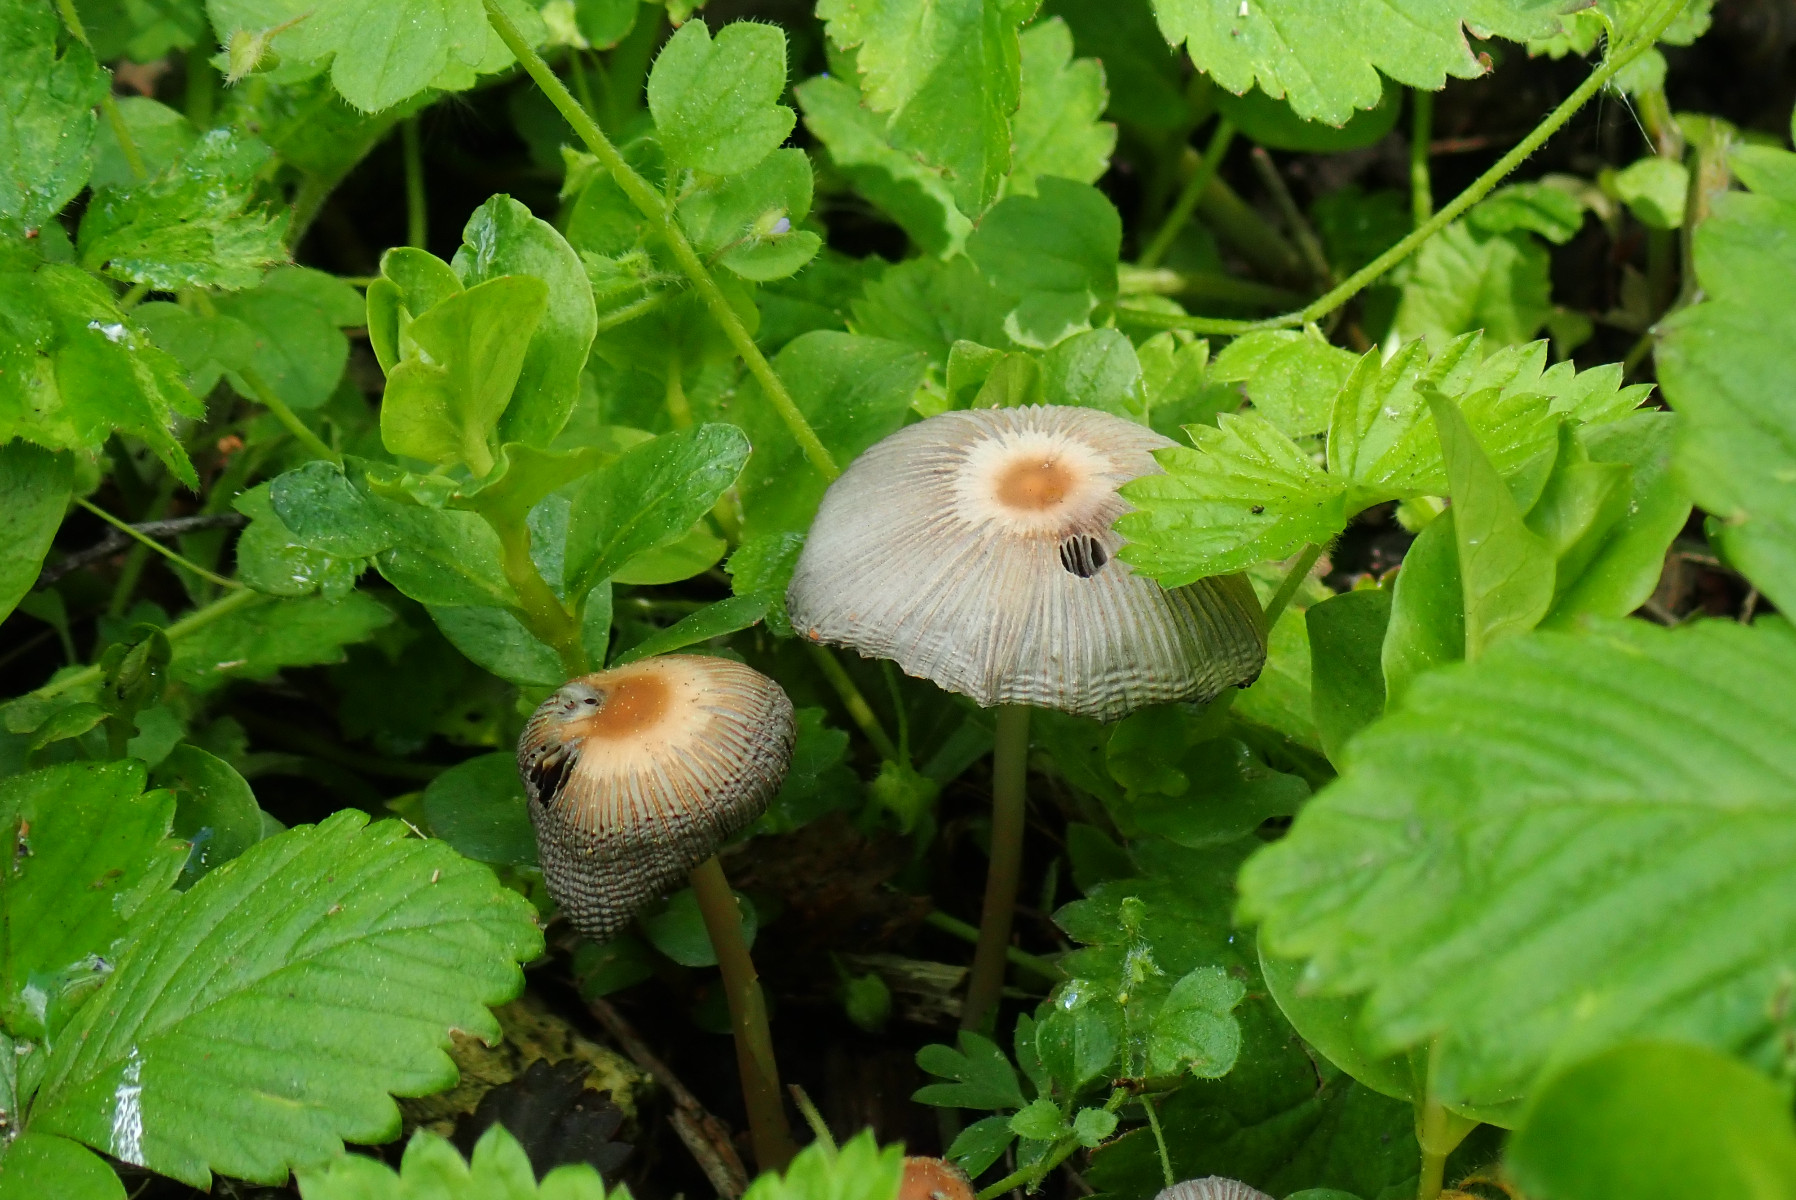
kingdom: Fungi
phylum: Basidiomycota
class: Agaricomycetes
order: Agaricales
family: Psathyrellaceae
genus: Parasola
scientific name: Parasola kuehneri
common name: skygge-hjulhat
